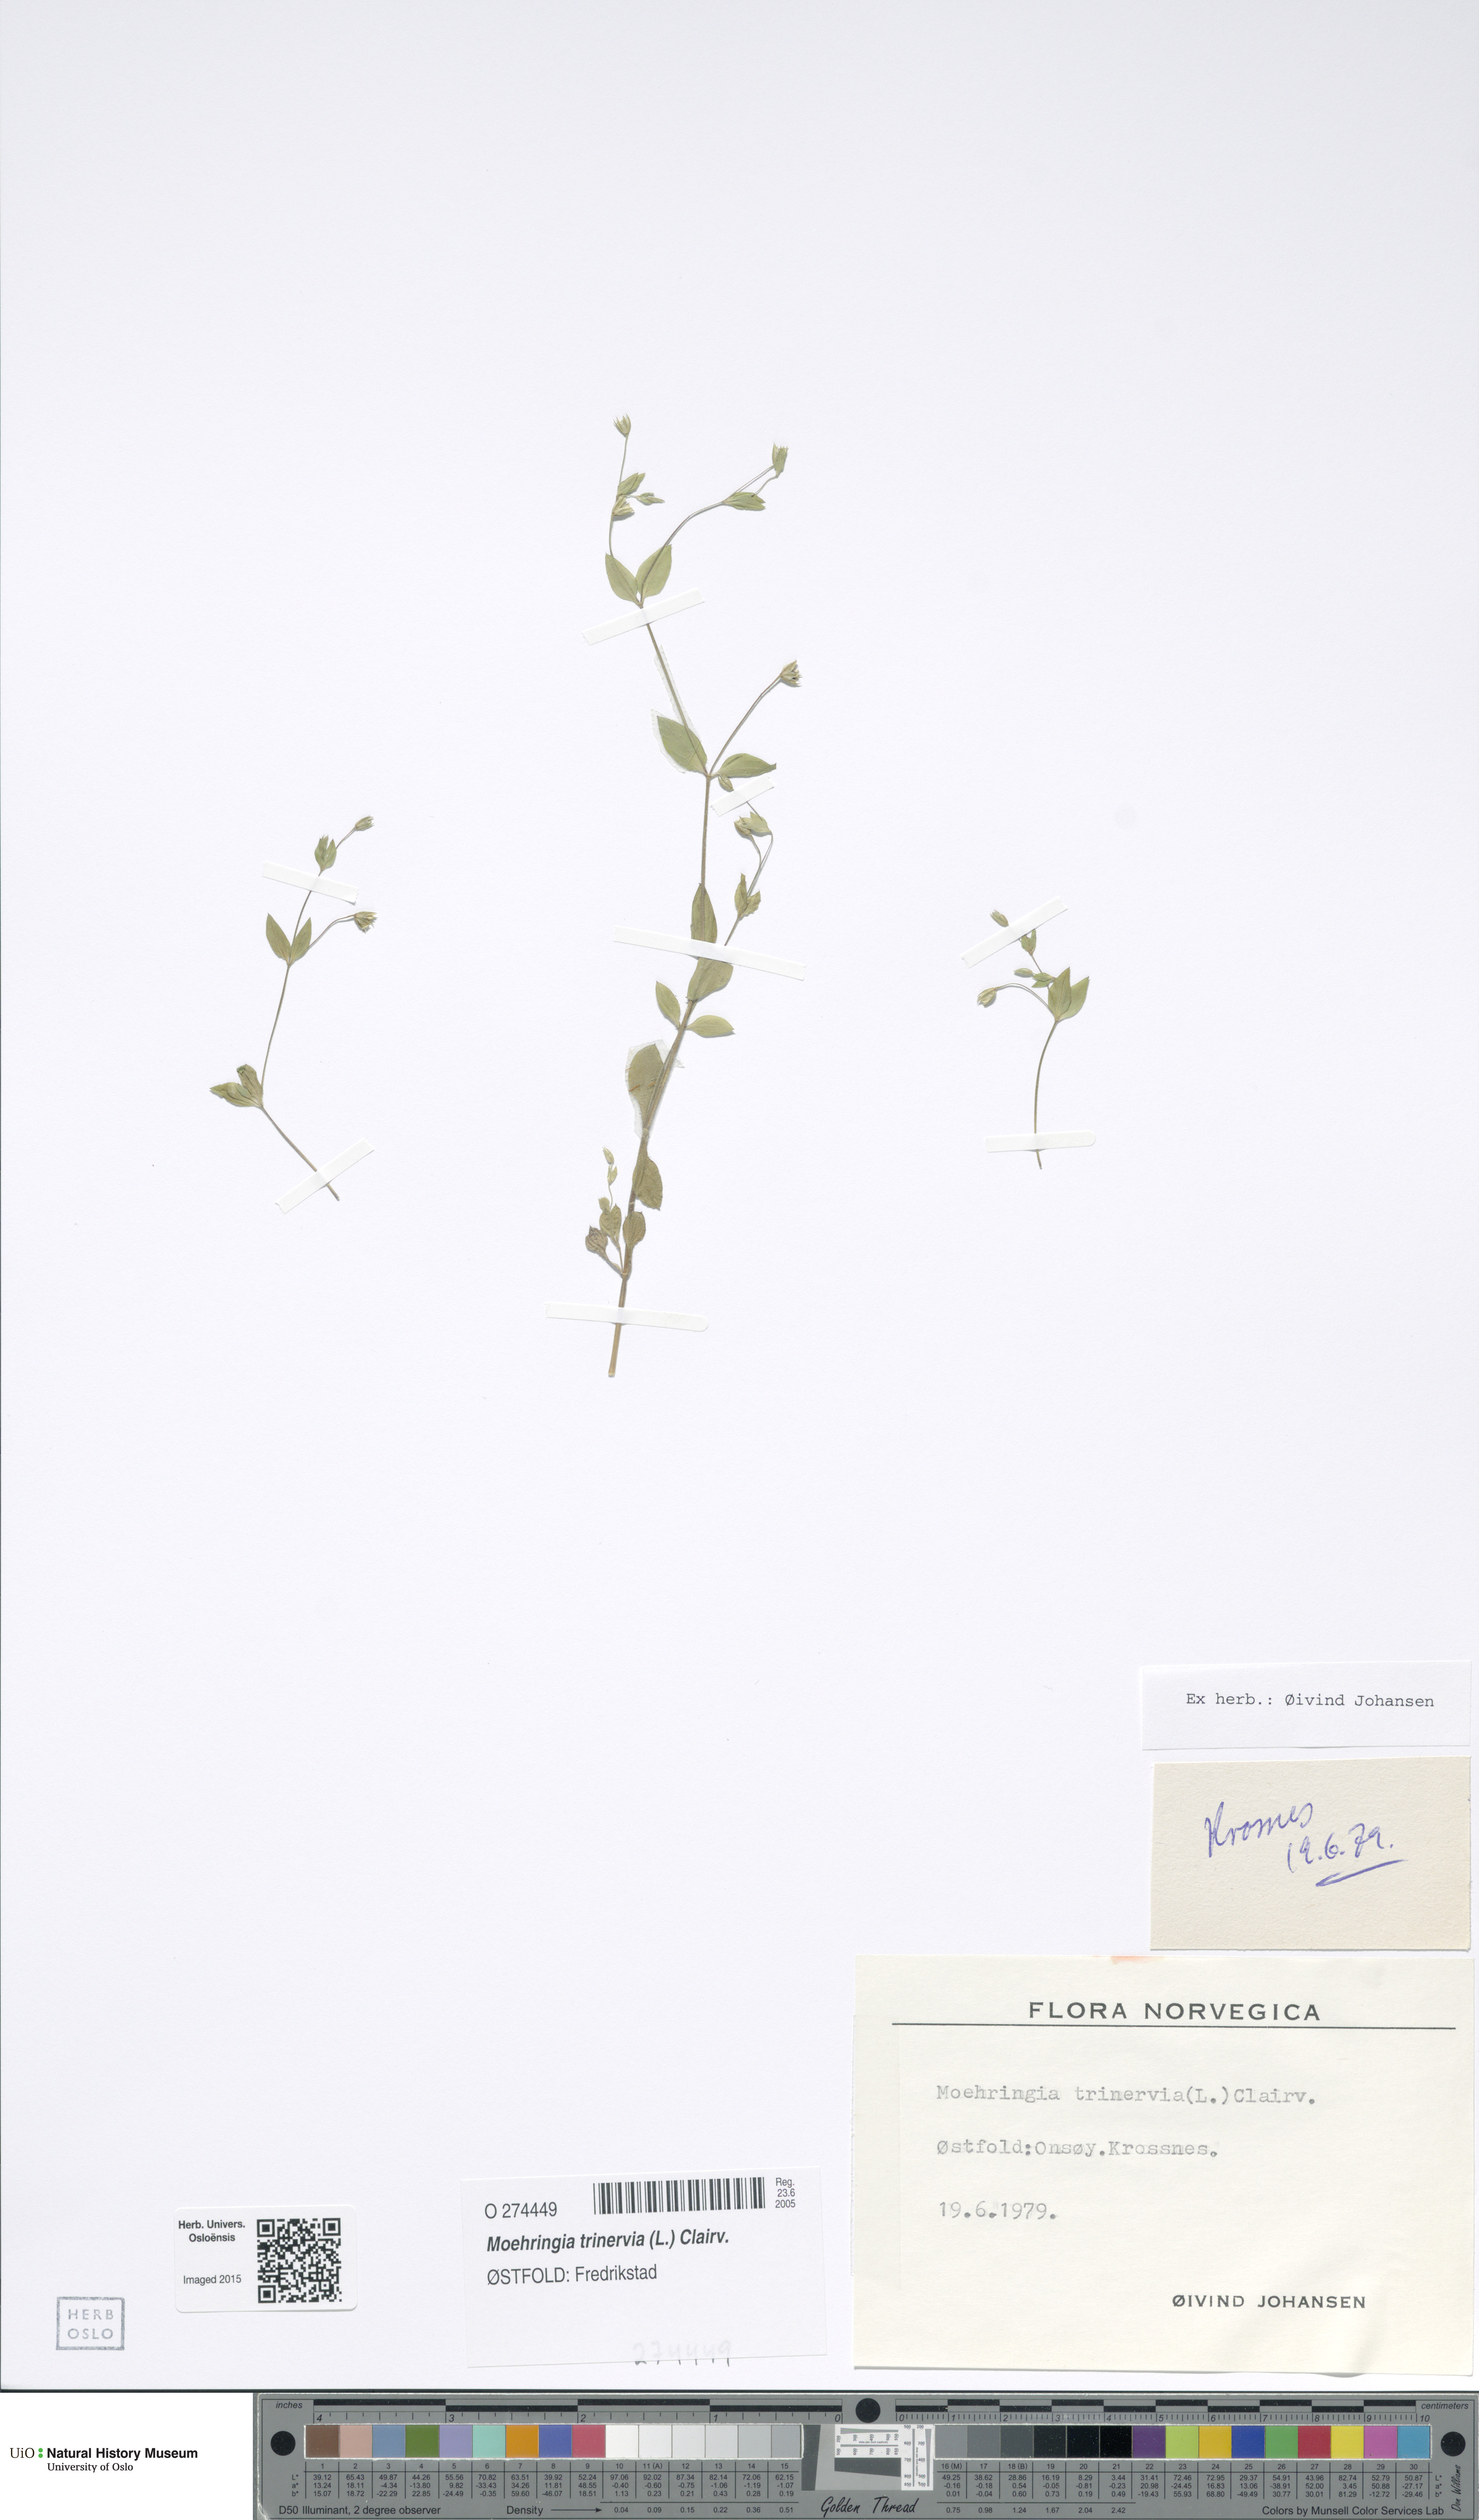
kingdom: Plantae
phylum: Tracheophyta
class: Magnoliopsida
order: Caryophyllales
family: Caryophyllaceae
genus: Moehringia
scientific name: Moehringia trinervia
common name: Three-nerved sandwort
